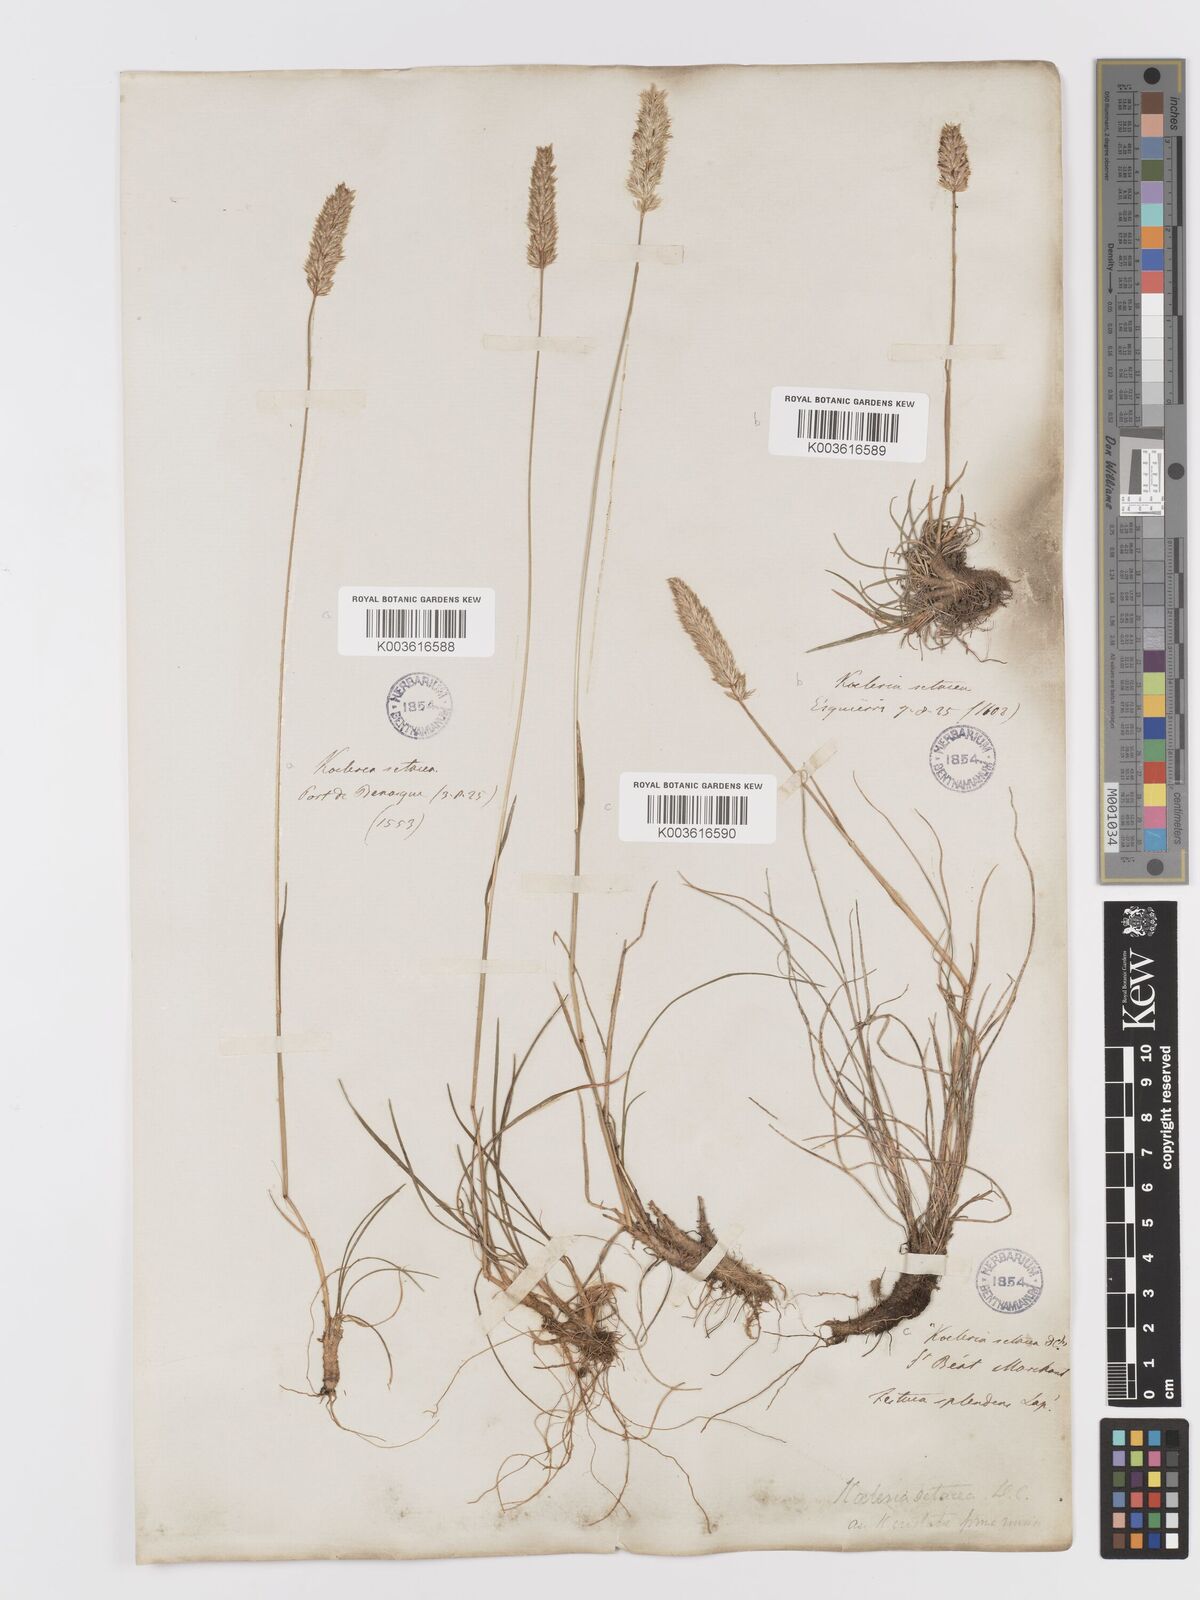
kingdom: Plantae
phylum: Tracheophyta
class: Liliopsida
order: Poales
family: Poaceae
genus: Koeleria
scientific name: Koeleria vallesiana
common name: Somerset hair-grass
